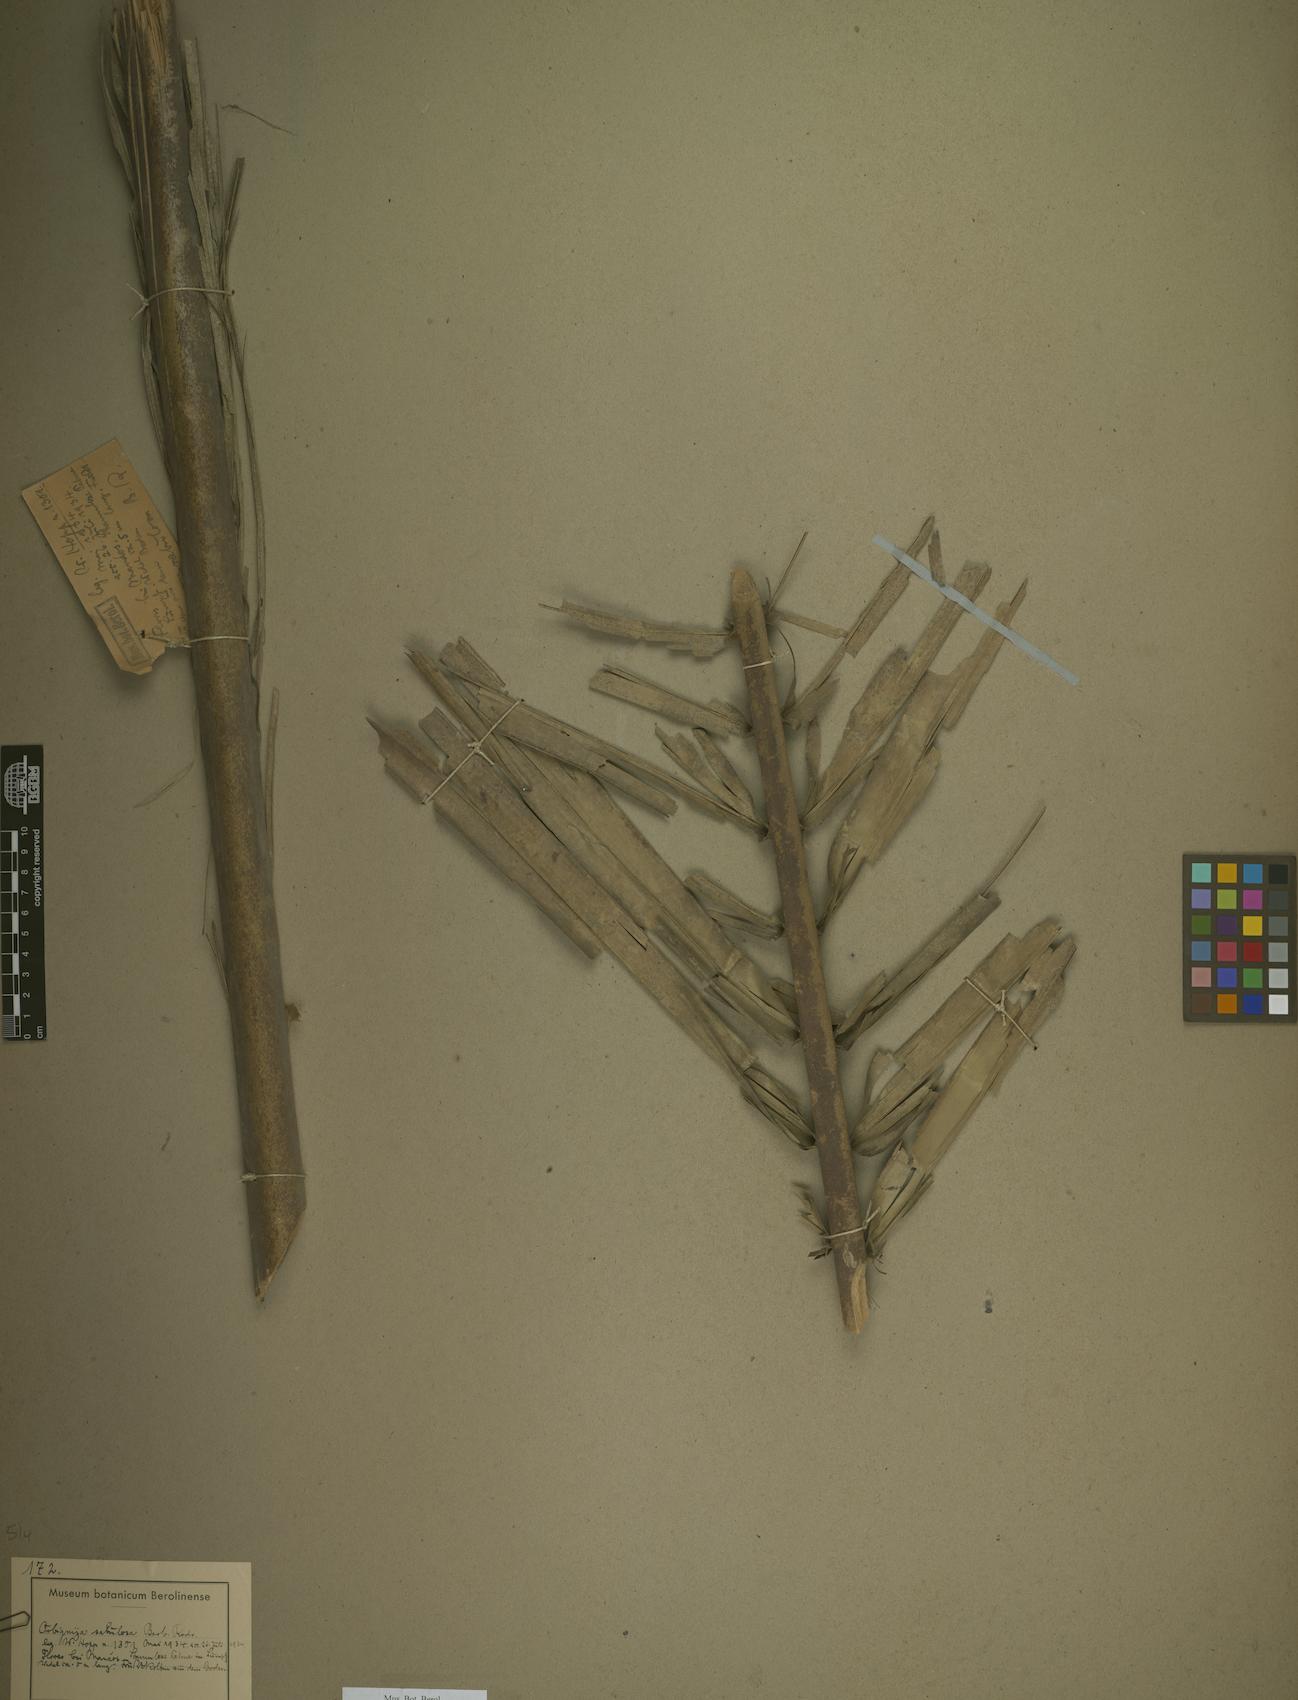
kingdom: Plantae
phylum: Tracheophyta
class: Liliopsida
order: Arecales
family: Arecaceae
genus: Attalea
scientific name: Attalea microcarpa
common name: Mountain maripa
